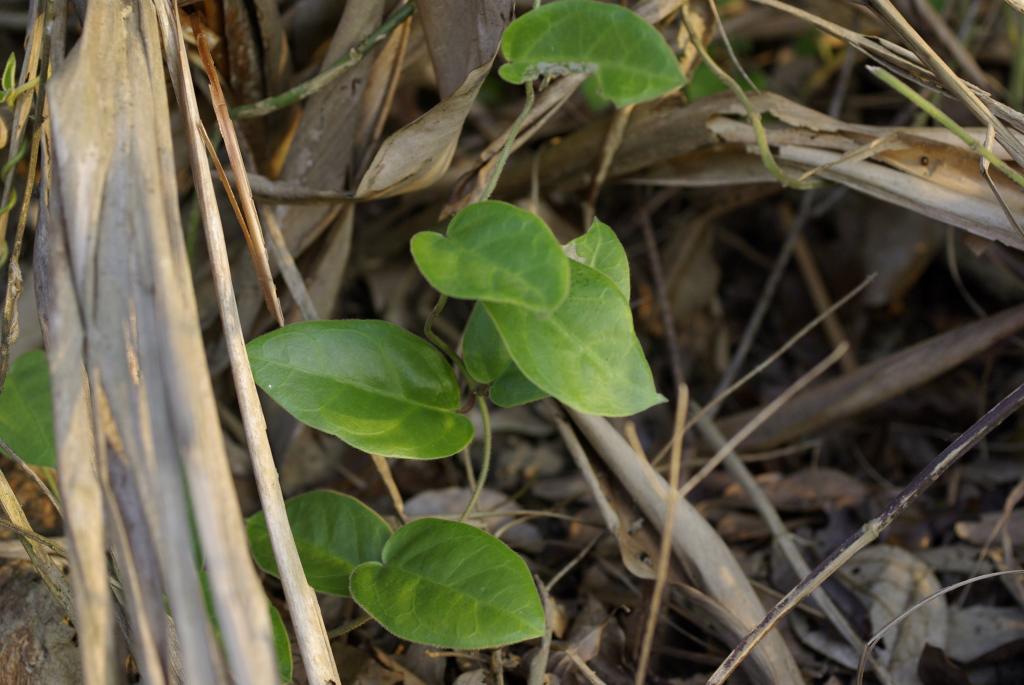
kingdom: Plantae
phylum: Tracheophyta
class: Magnoliopsida
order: Gentianales
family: Apocynaceae
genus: Vincetoxicum
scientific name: Vincetoxicum hirsutum
